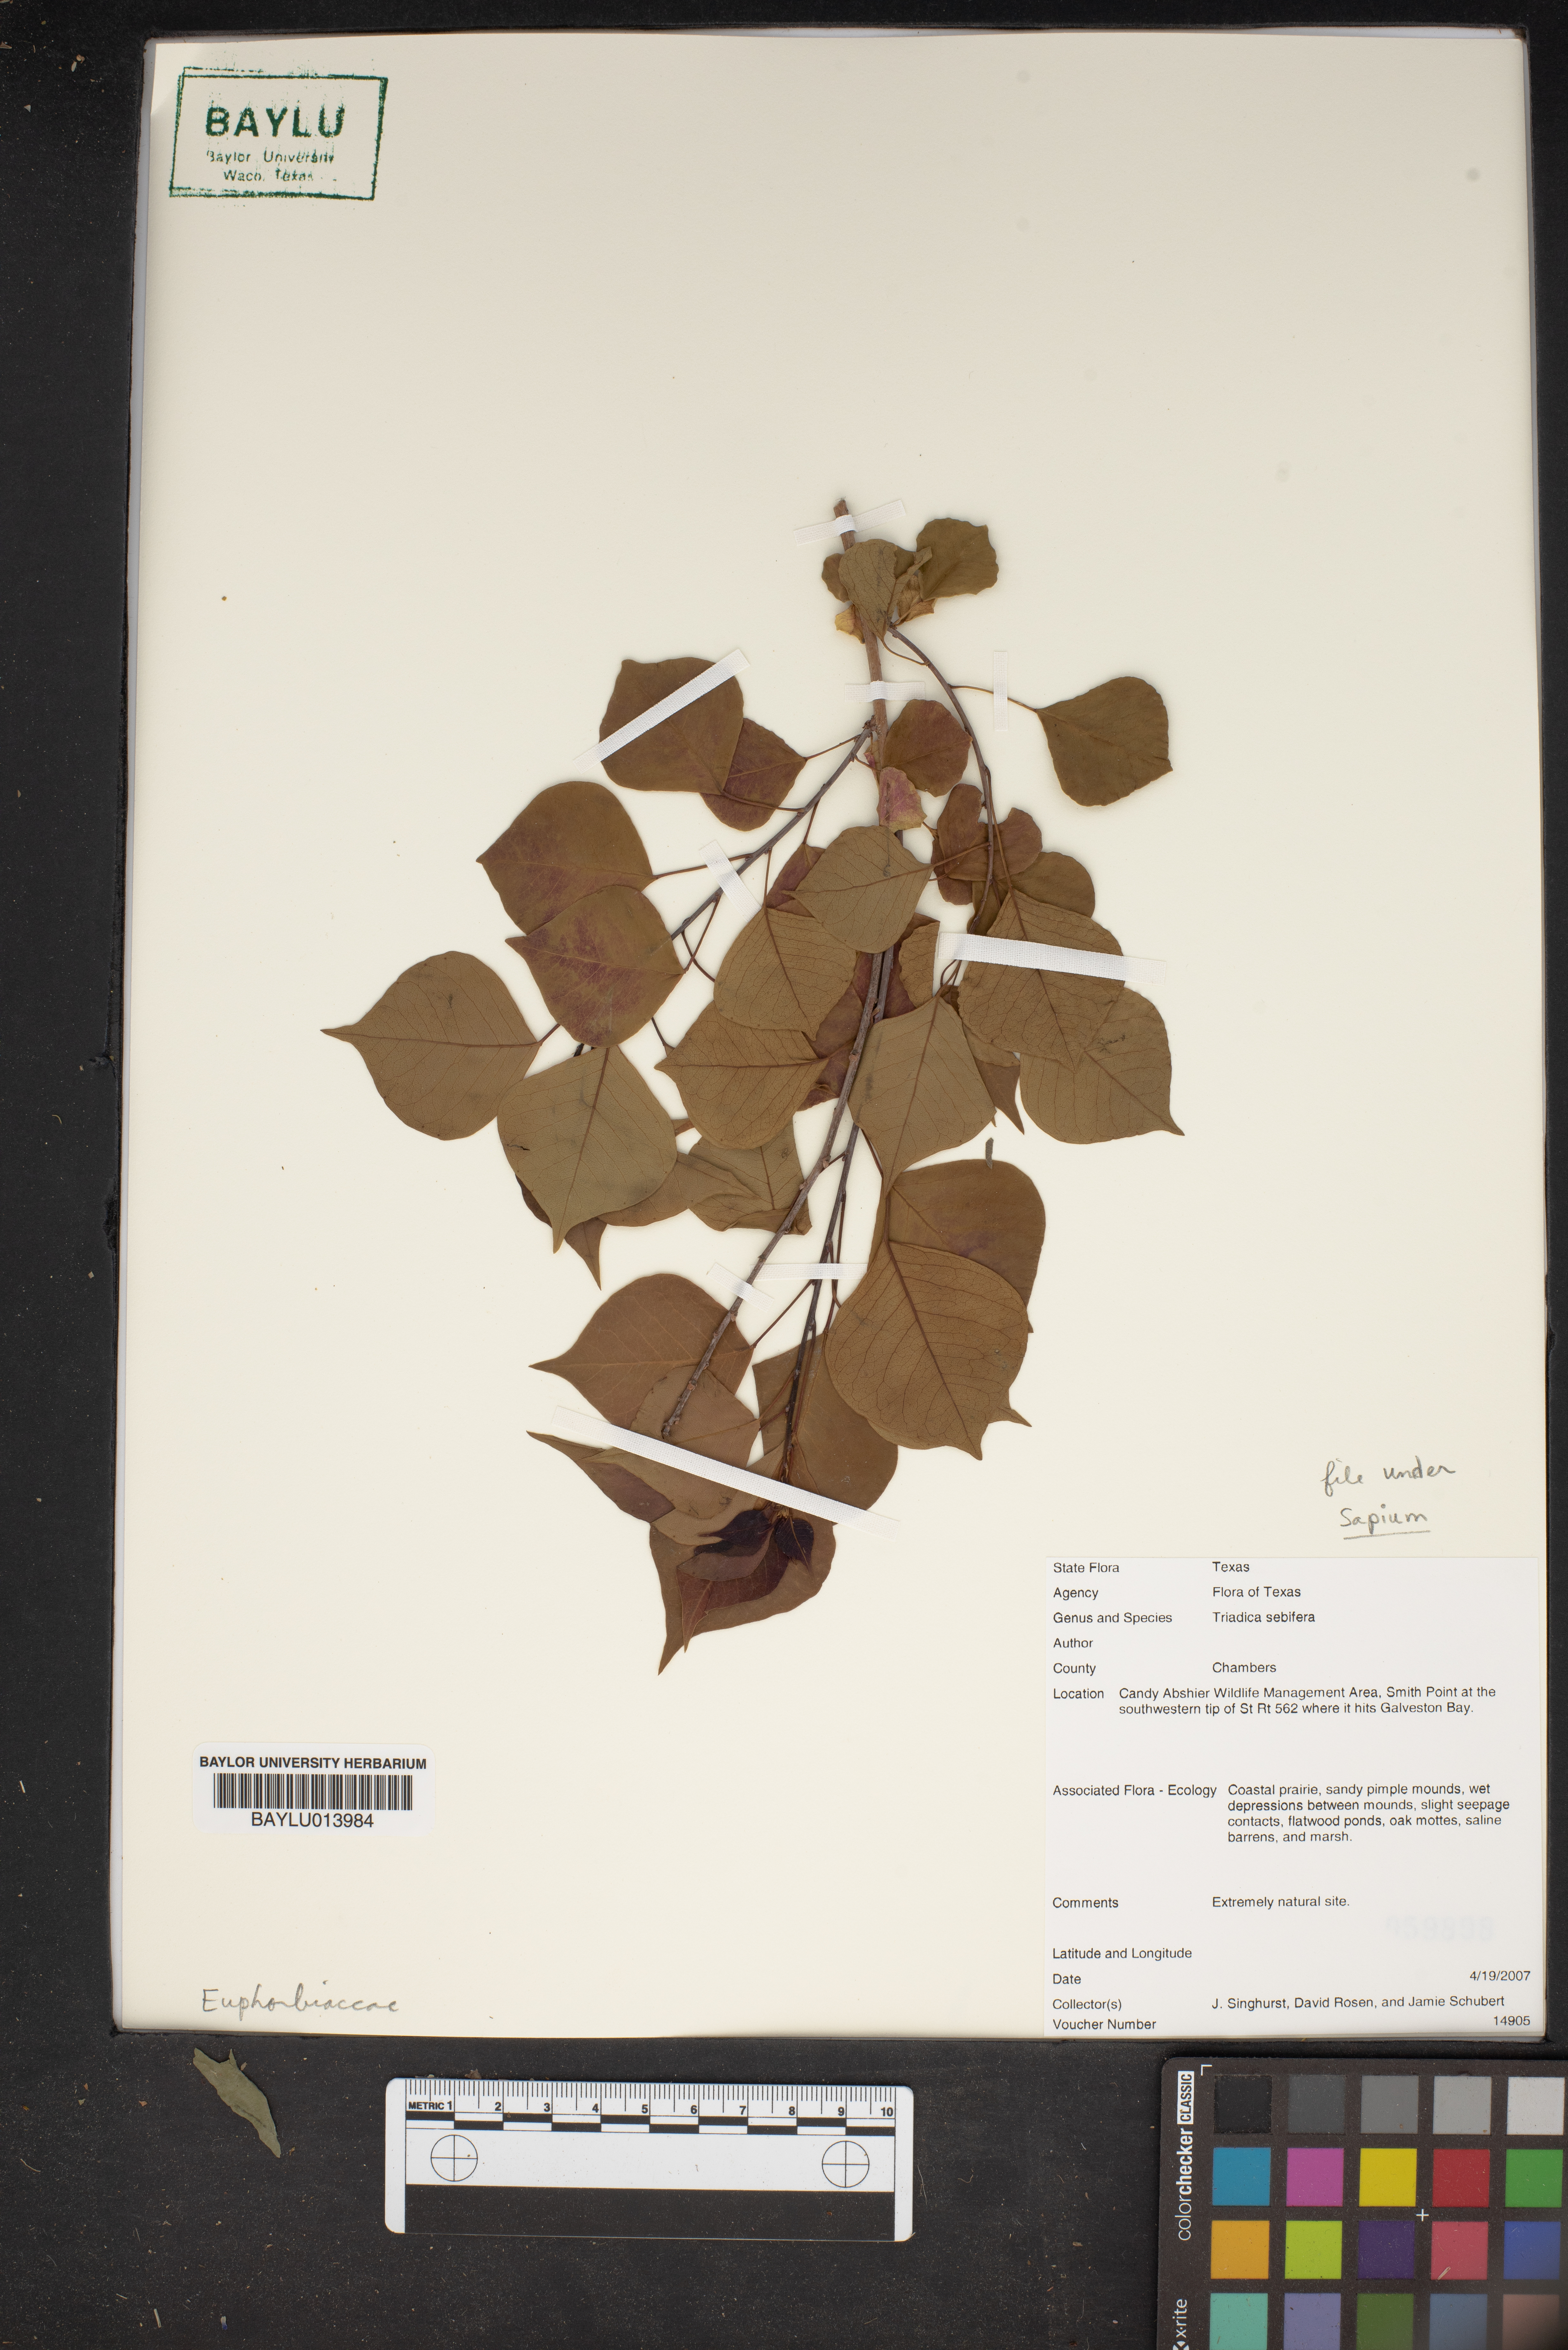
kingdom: Plantae
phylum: Tracheophyta
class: Magnoliopsida
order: Malpighiales
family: Euphorbiaceae
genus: Triadica
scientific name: Triadica sebifera
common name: Chinese tallow
